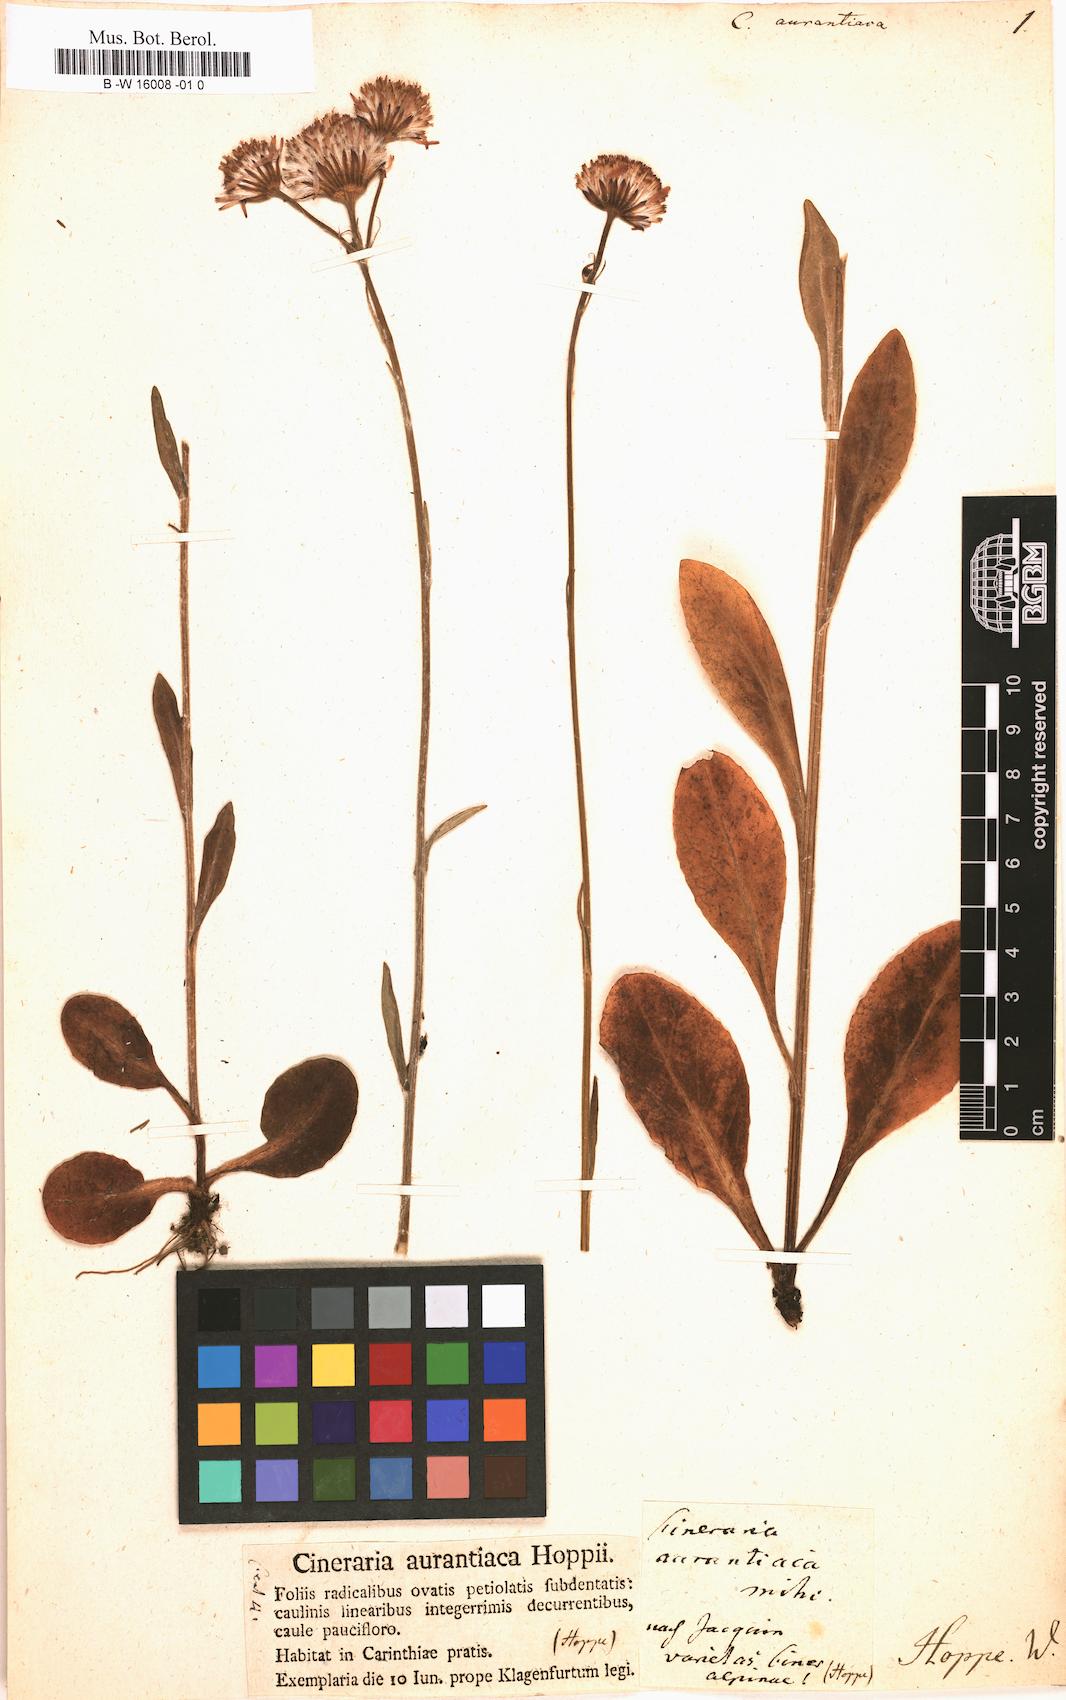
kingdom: Plantae
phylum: Tracheophyta
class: Magnoliopsida
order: Asterales
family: Asteraceae
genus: Tephroseris
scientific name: Tephroseris
